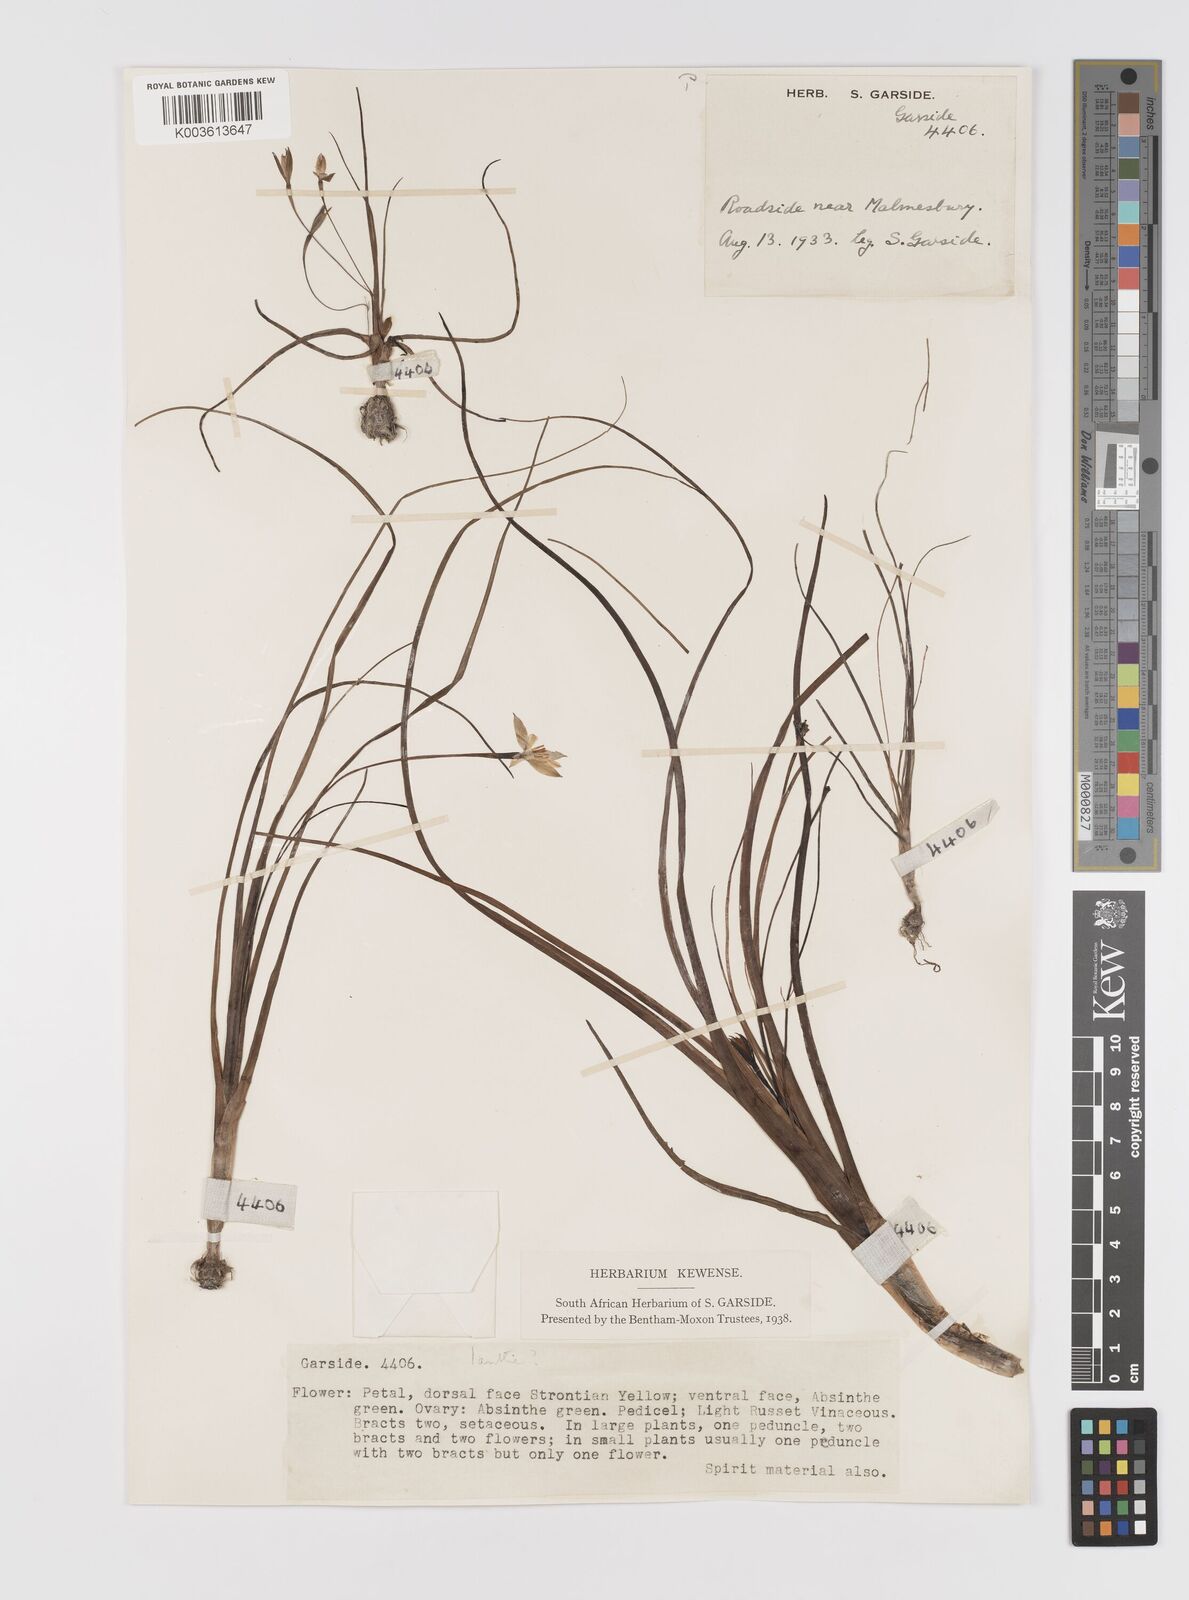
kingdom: Plantae
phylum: Tracheophyta
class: Liliopsida
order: Asparagales
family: Hypoxidaceae
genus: Pauridia
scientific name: Pauridia
